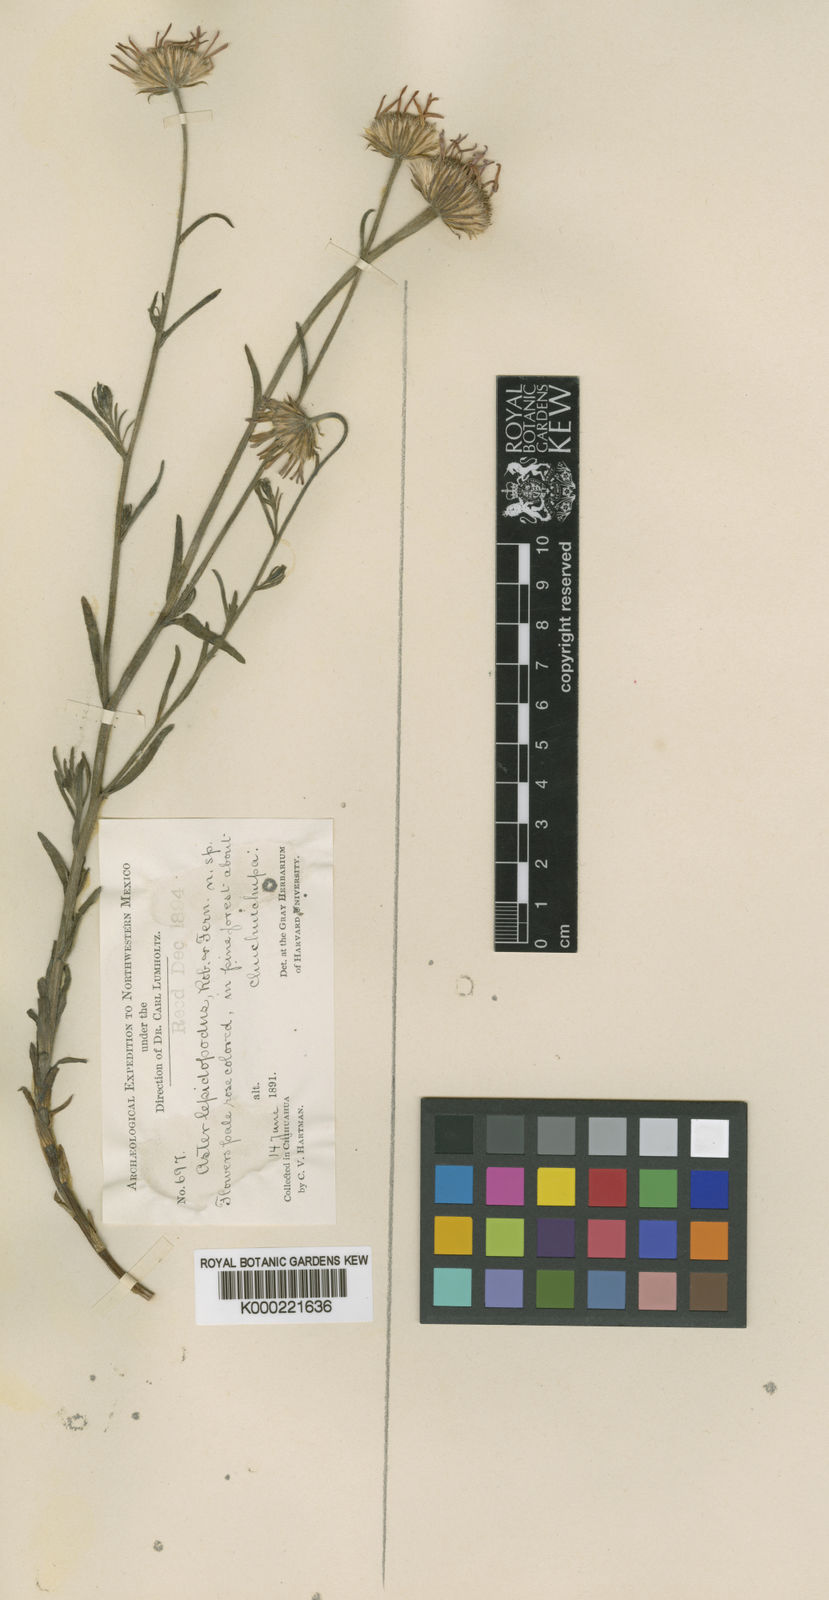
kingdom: Plantae
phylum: Tracheophyta
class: Magnoliopsida
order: Asterales
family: Asteraceae
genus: Erigeron
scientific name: Erigeron lepidopodus
